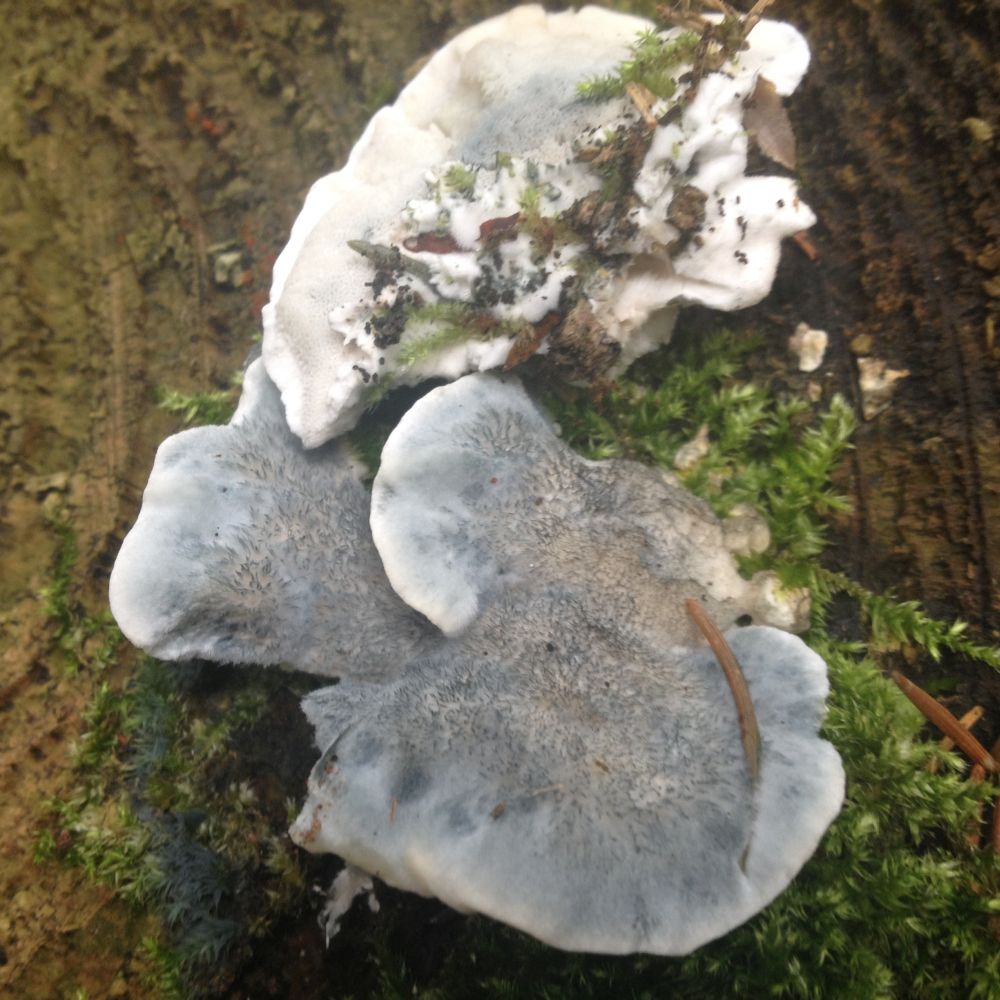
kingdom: Fungi
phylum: Basidiomycota
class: Agaricomycetes
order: Polyporales
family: Polyporaceae
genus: Cyanosporus
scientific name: Cyanosporus caesius
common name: blålig kødporesvamp
